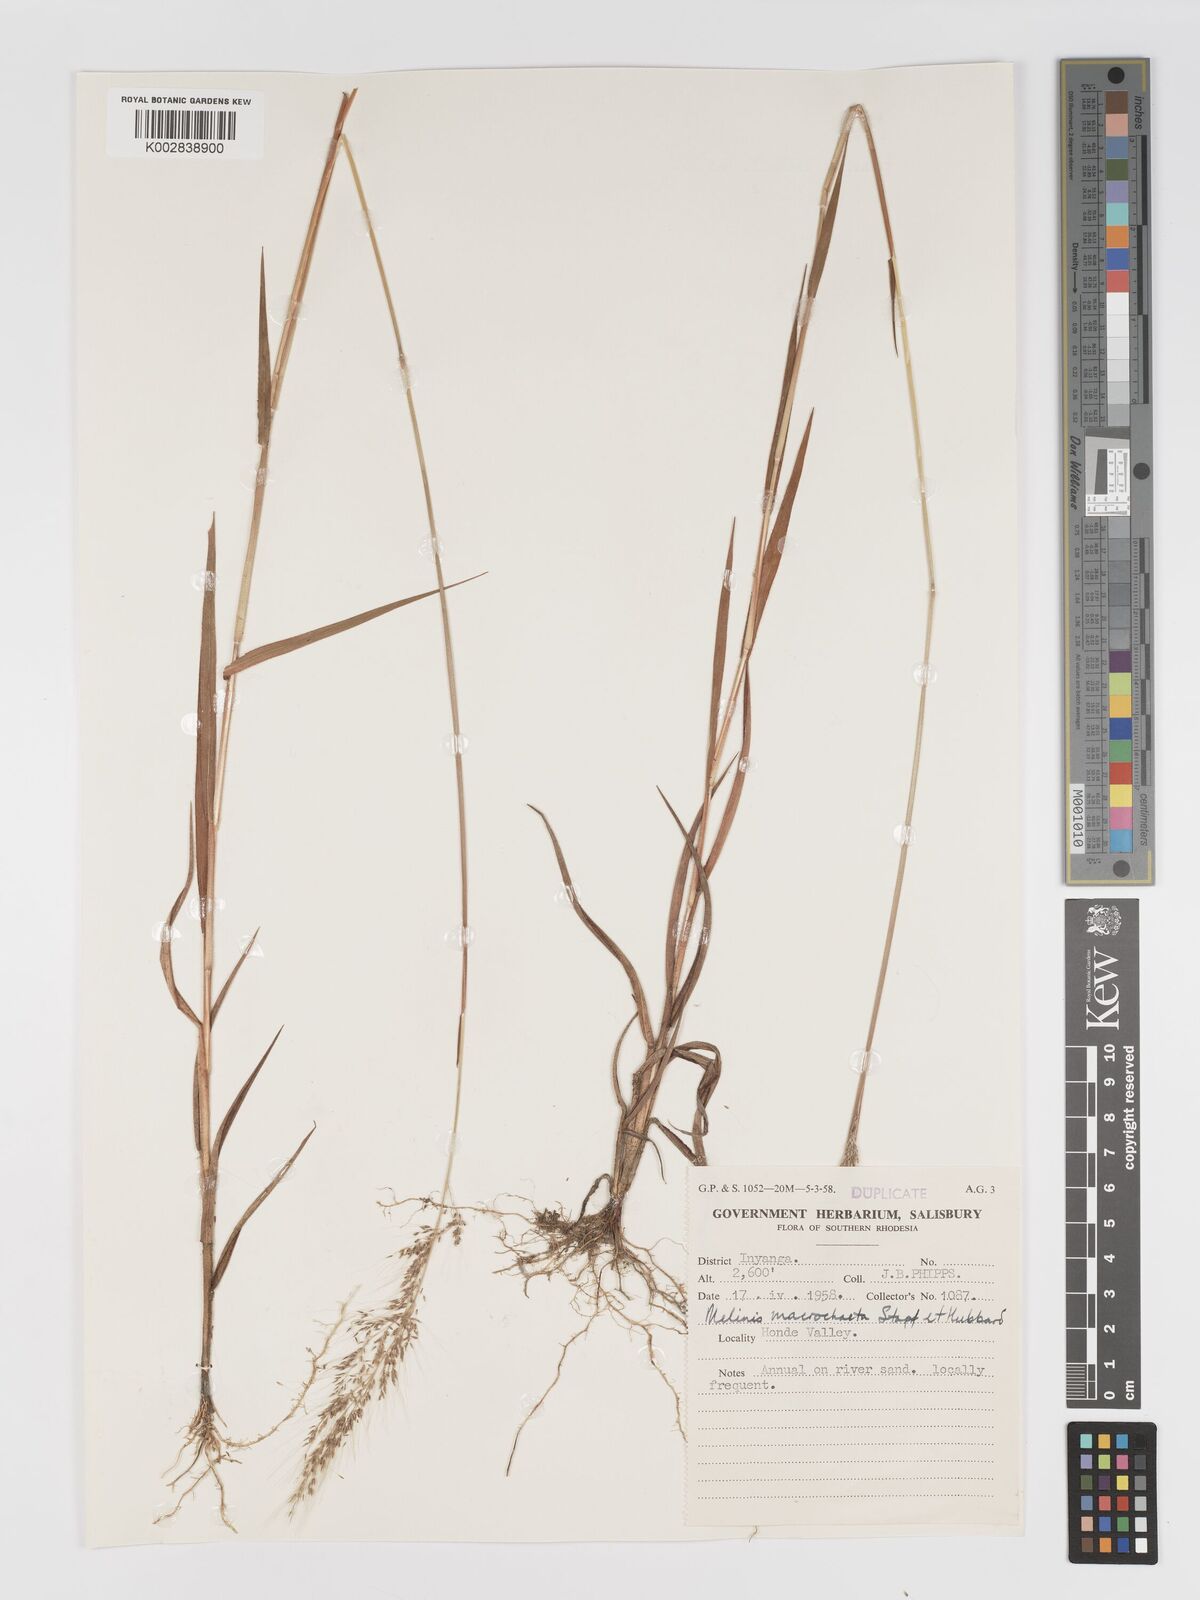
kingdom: Plantae
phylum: Tracheophyta
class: Liliopsida
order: Poales
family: Poaceae
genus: Melinis
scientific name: Melinis macrochaeta
